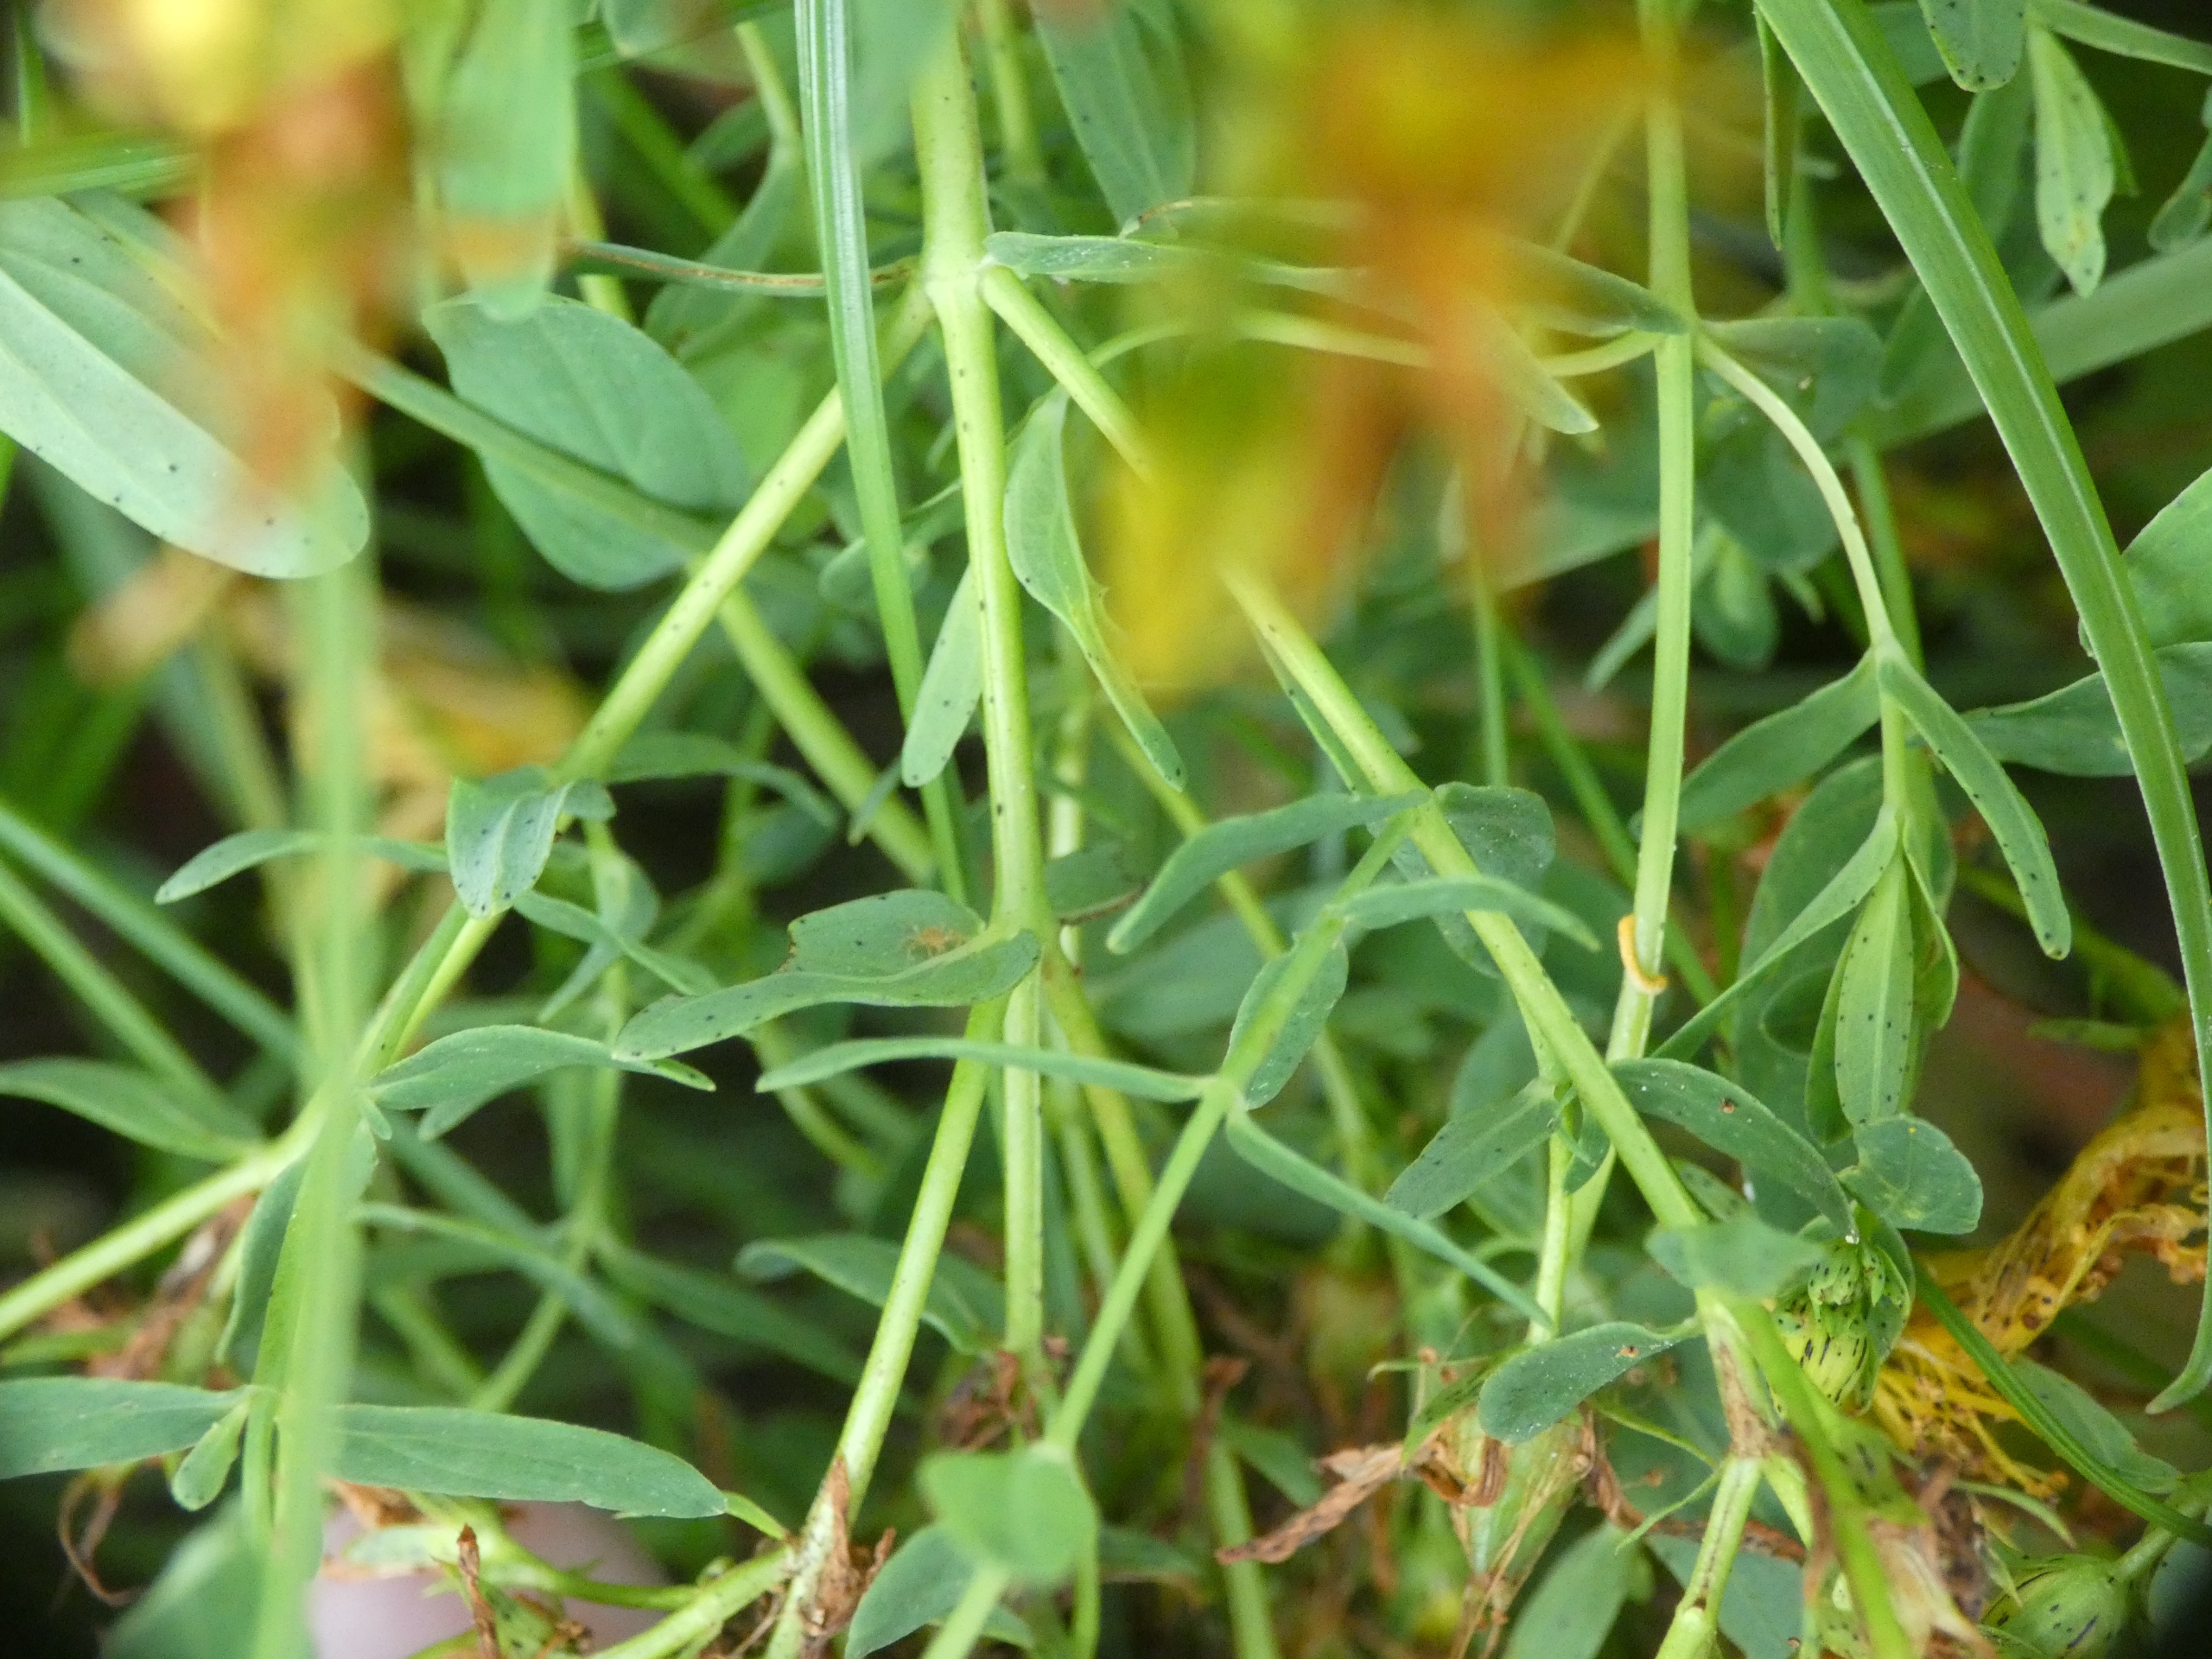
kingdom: Plantae
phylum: Tracheophyta
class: Magnoliopsida
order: Malpighiales
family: Hypericaceae
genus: Hypericum
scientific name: Hypericum perforatum
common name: Prikbladet perikon
